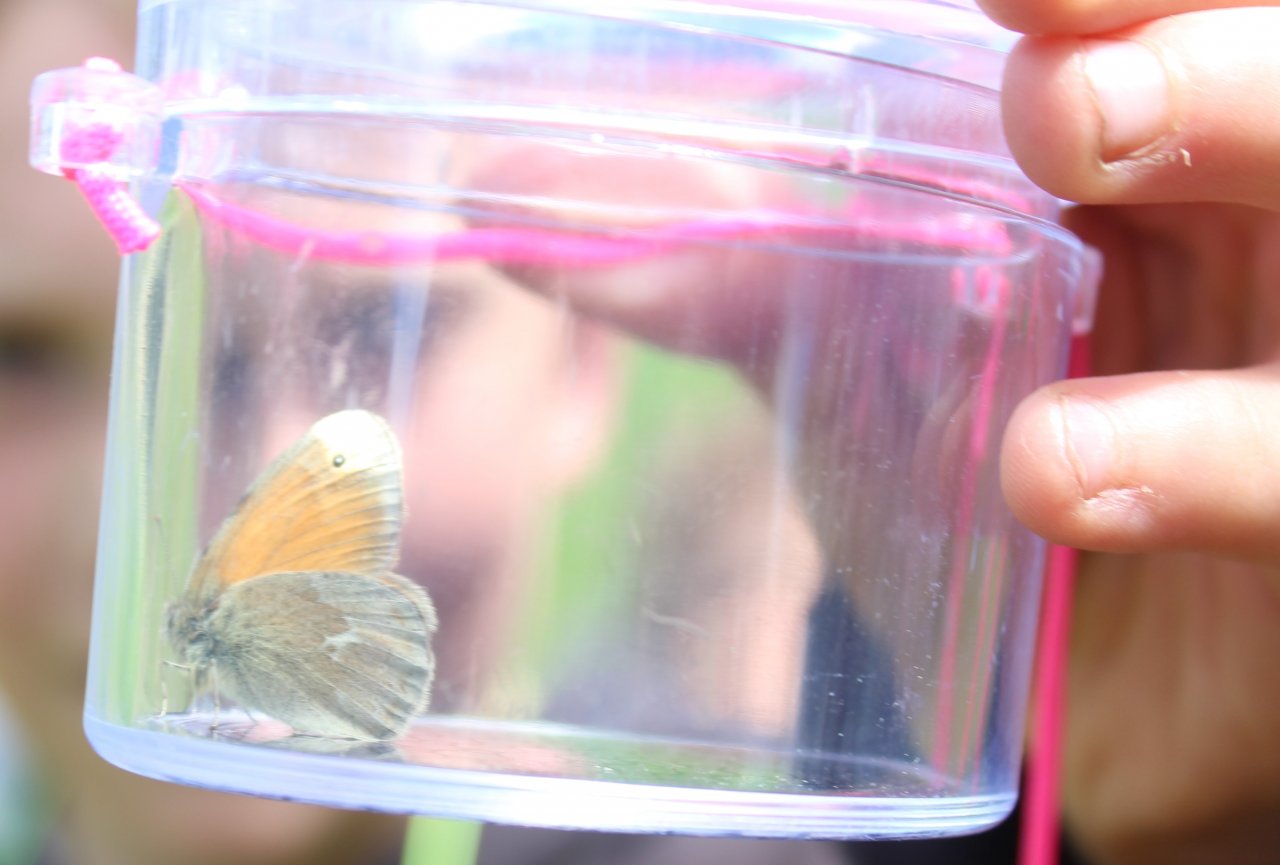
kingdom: Animalia
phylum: Arthropoda
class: Insecta
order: Lepidoptera
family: Nymphalidae
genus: Coenonympha
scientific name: Coenonympha tullia
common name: Large Heath
